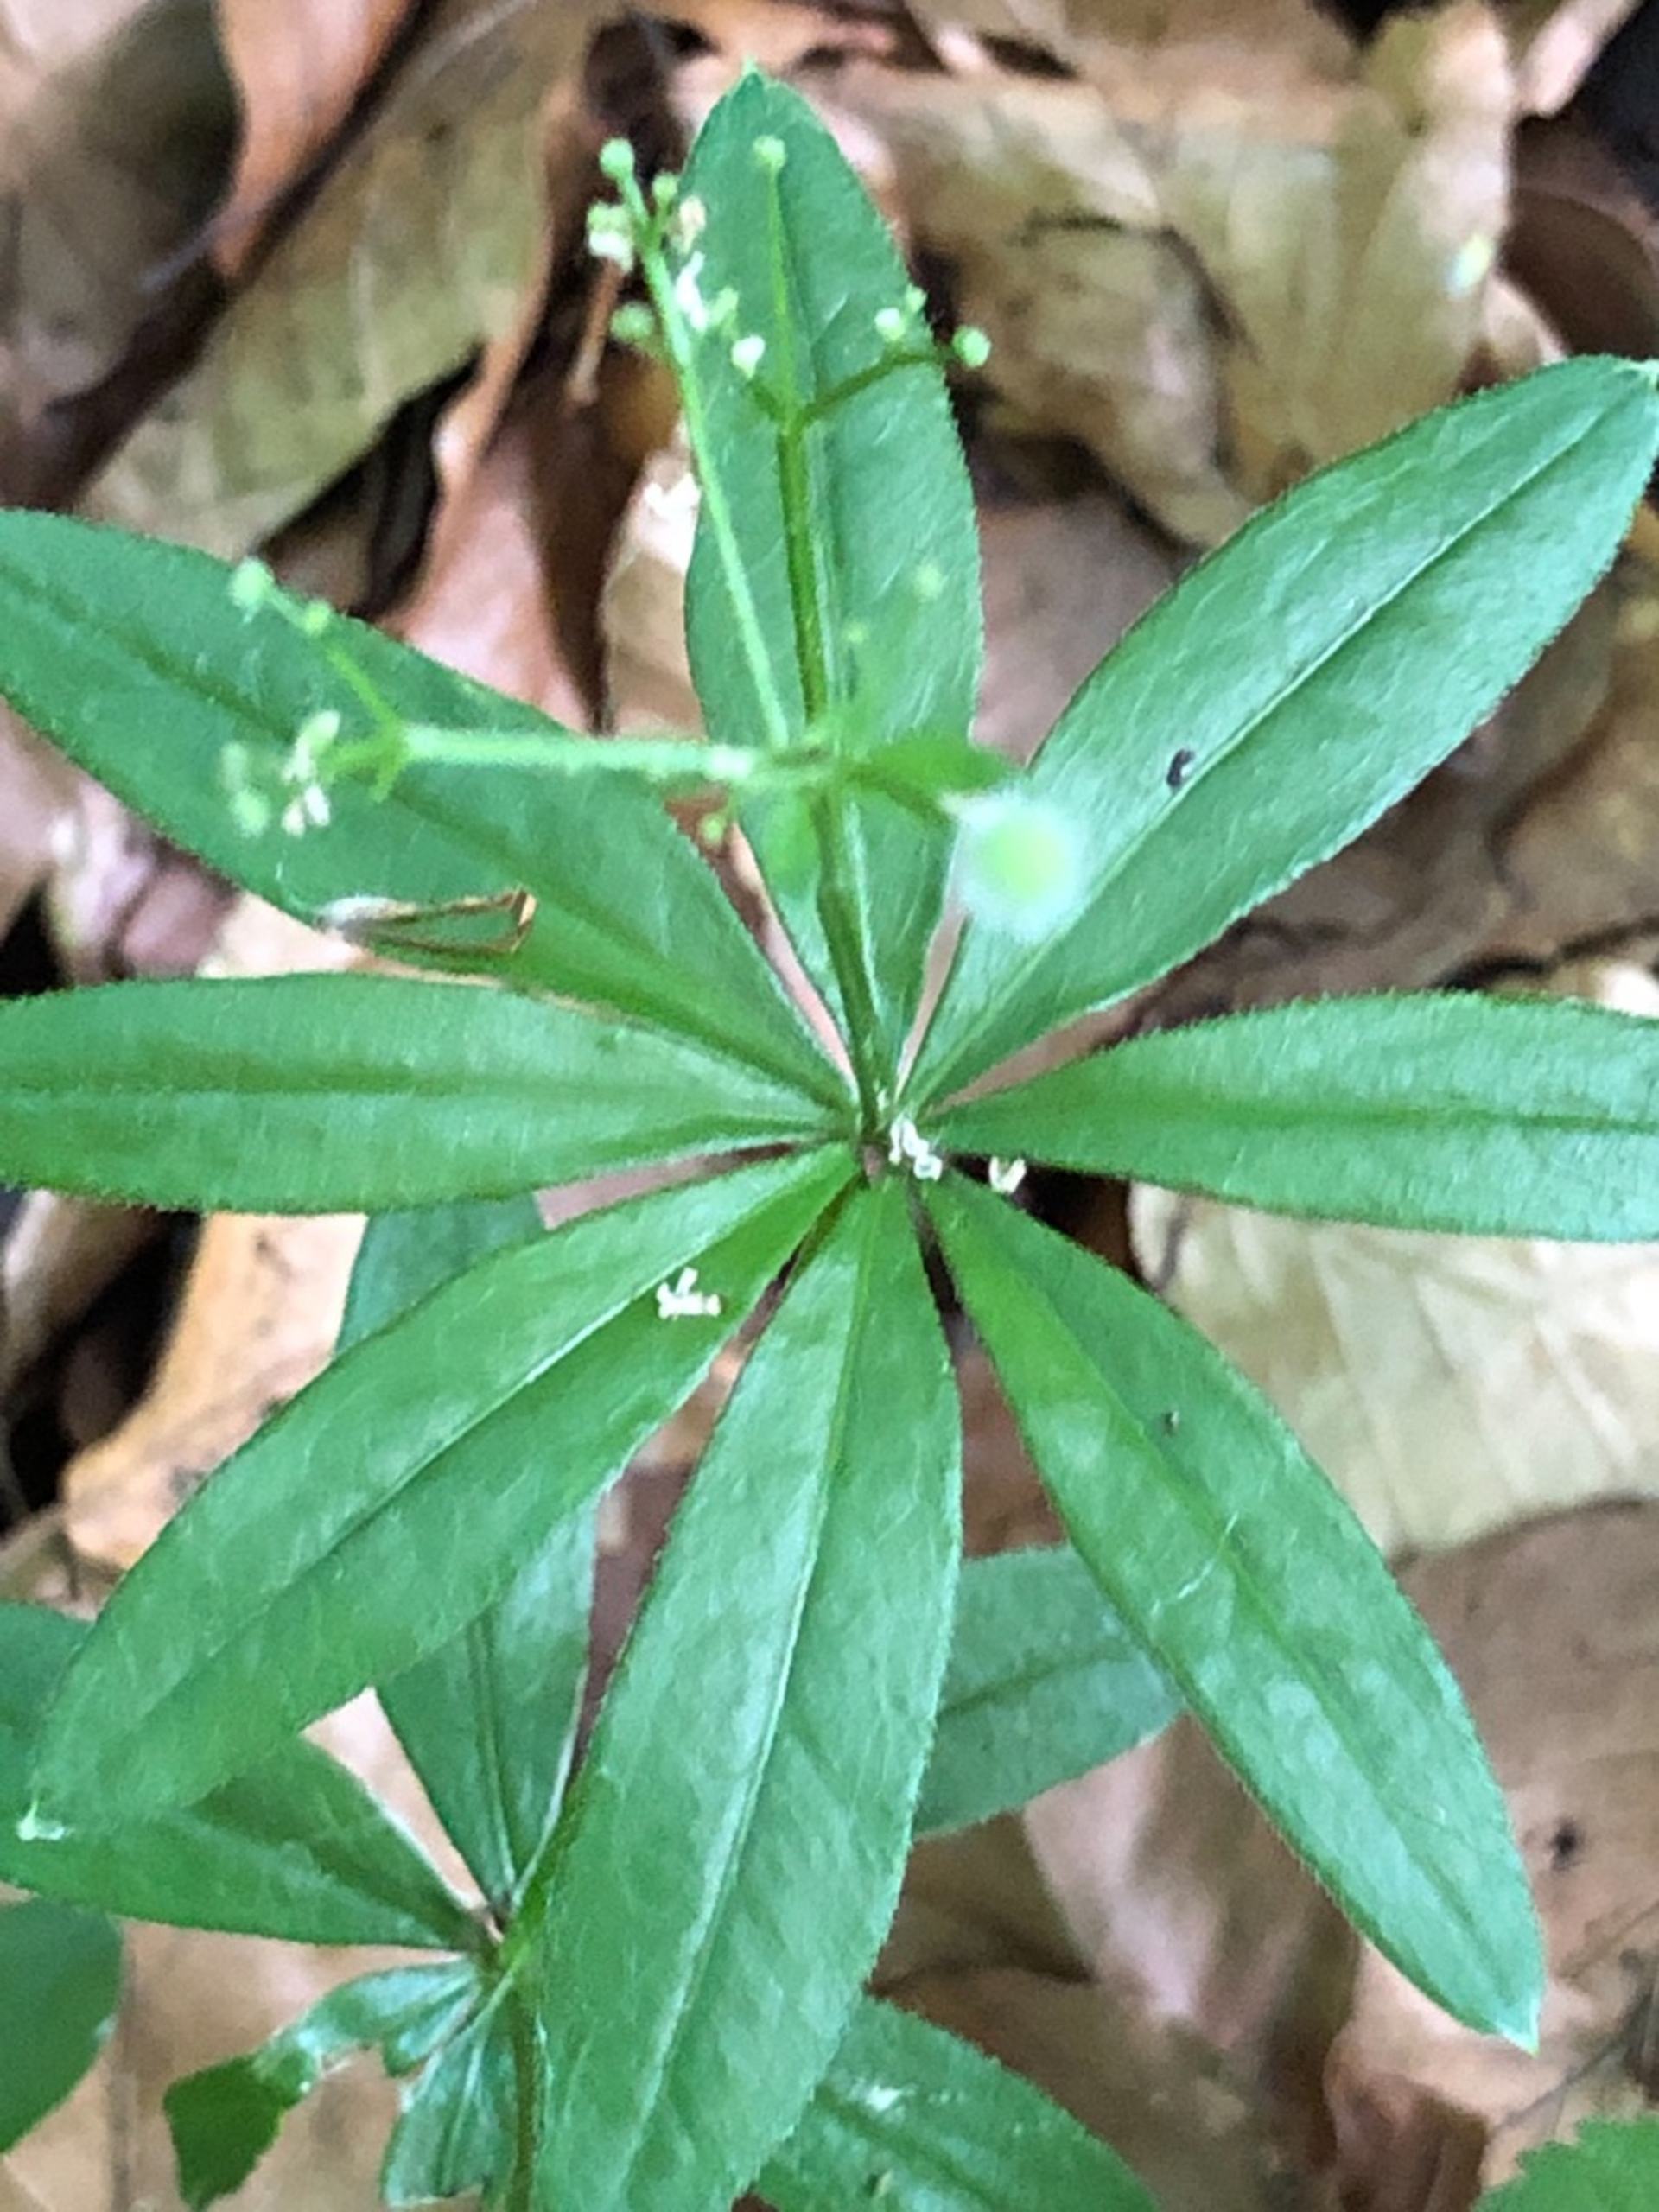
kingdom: Plantae
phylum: Tracheophyta
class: Magnoliopsida
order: Gentianales
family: Rubiaceae
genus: Galium
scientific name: Galium odoratum
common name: Skovmærke
